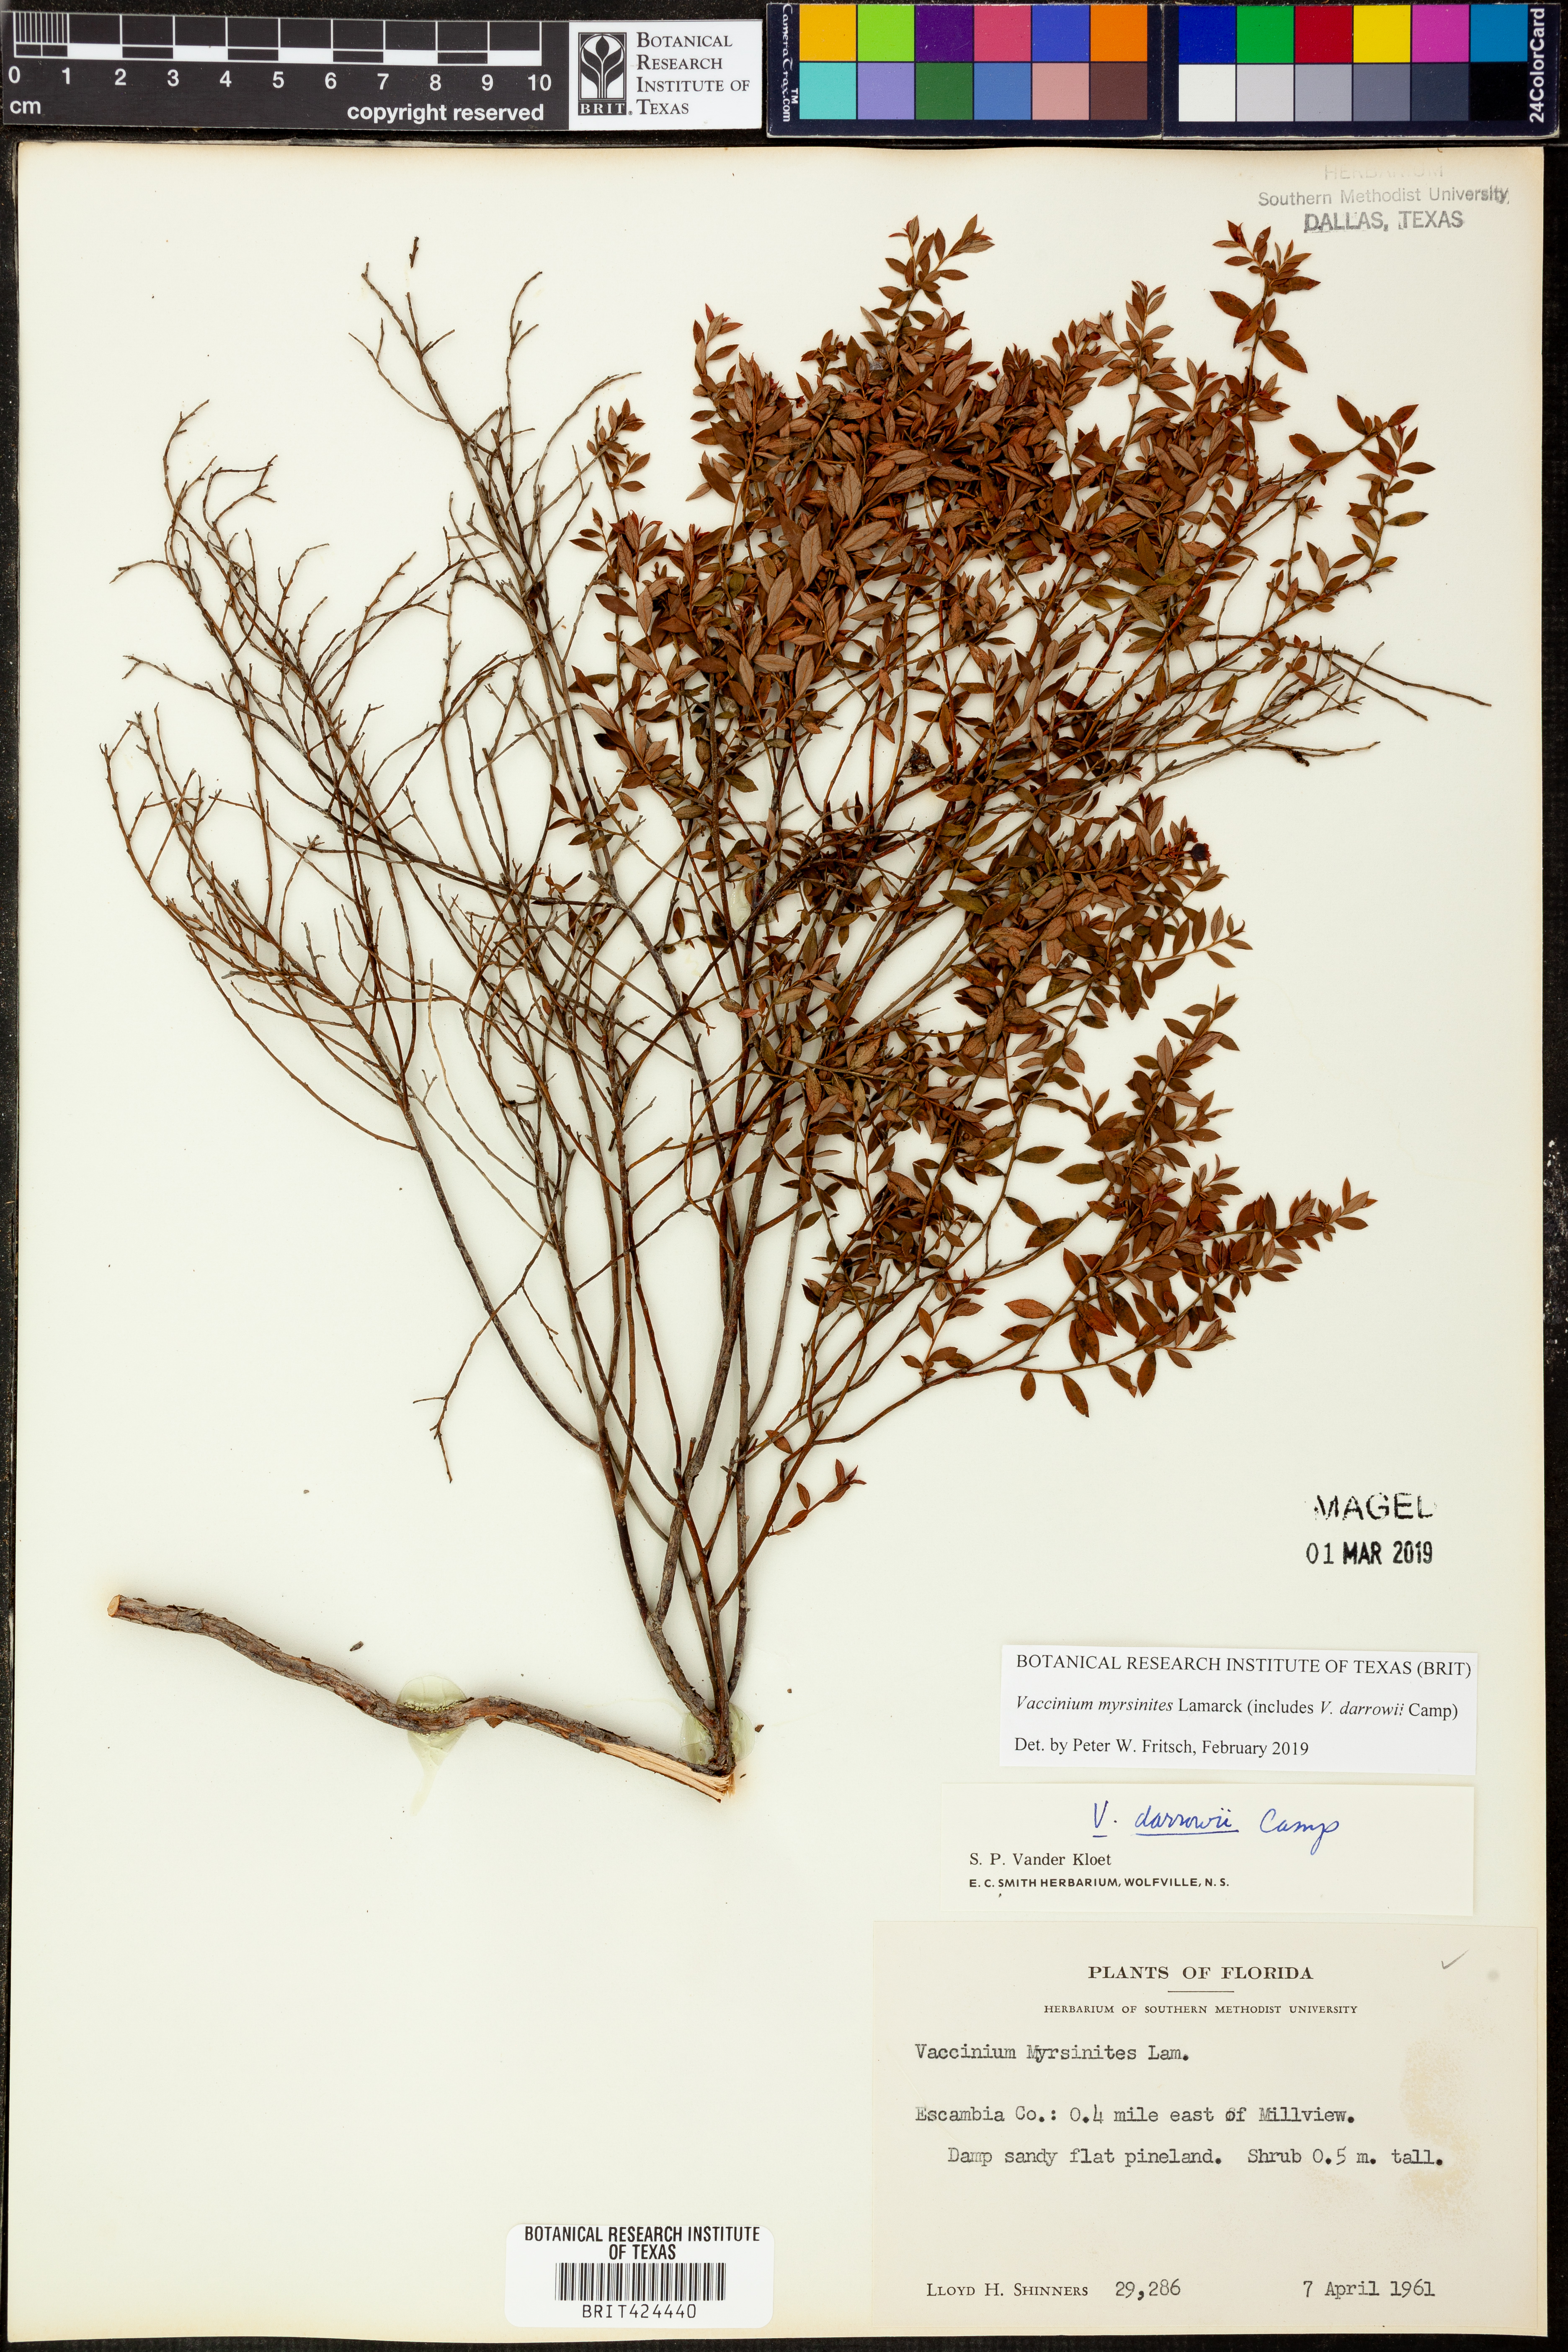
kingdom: Plantae
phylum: Tracheophyta
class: Magnoliopsida
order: Ericales
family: Ericaceae
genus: Vaccinium
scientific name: Vaccinium myrsinites
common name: Evergreen blueberry
